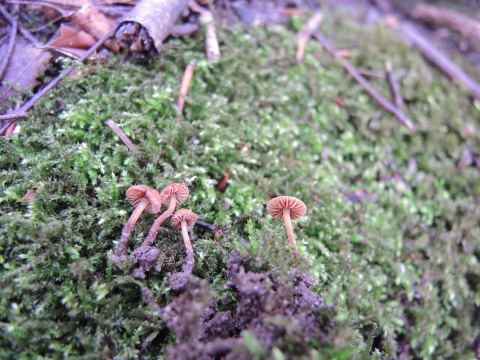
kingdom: Fungi
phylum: Basidiomycota
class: Agaricomycetes
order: Agaricales
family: Tubariaceae
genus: Flammulaster
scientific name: Flammulaster ferrugineus
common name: rustbrun grynskælhat
